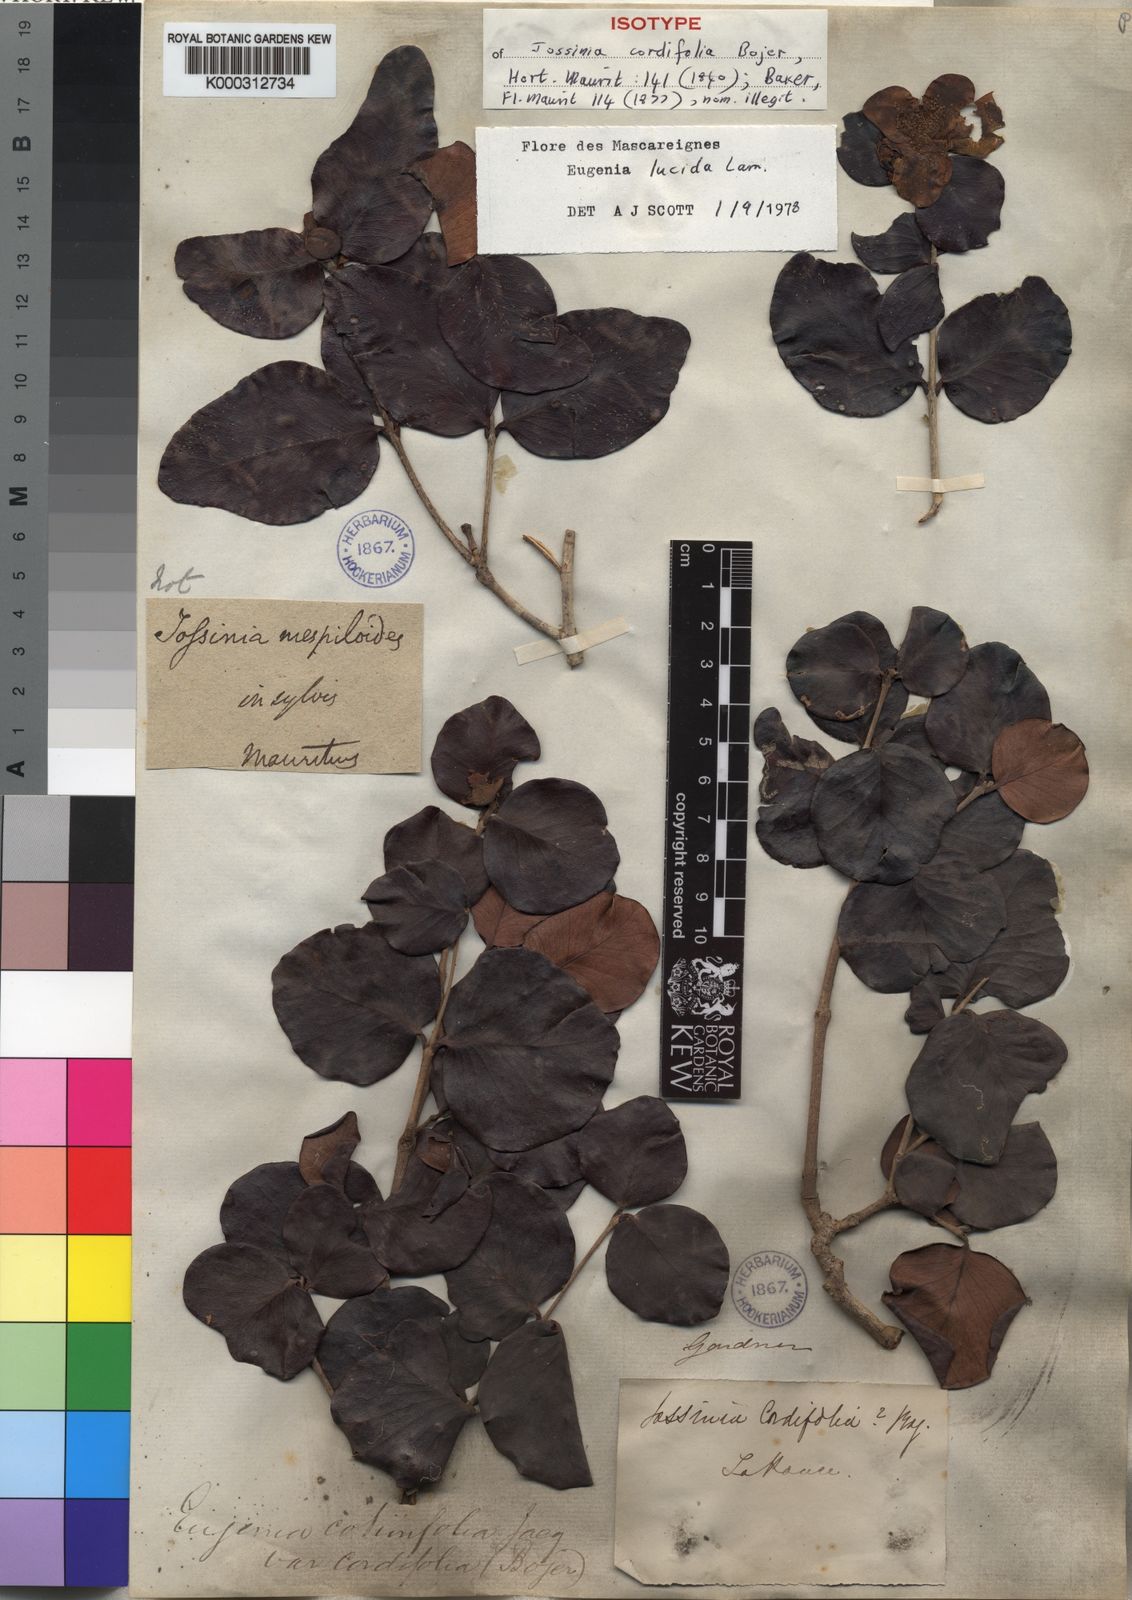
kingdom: Plantae
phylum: Tracheophyta
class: Magnoliopsida
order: Myrtales
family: Myrtaceae
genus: Eugenia
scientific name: Eugenia lucida
